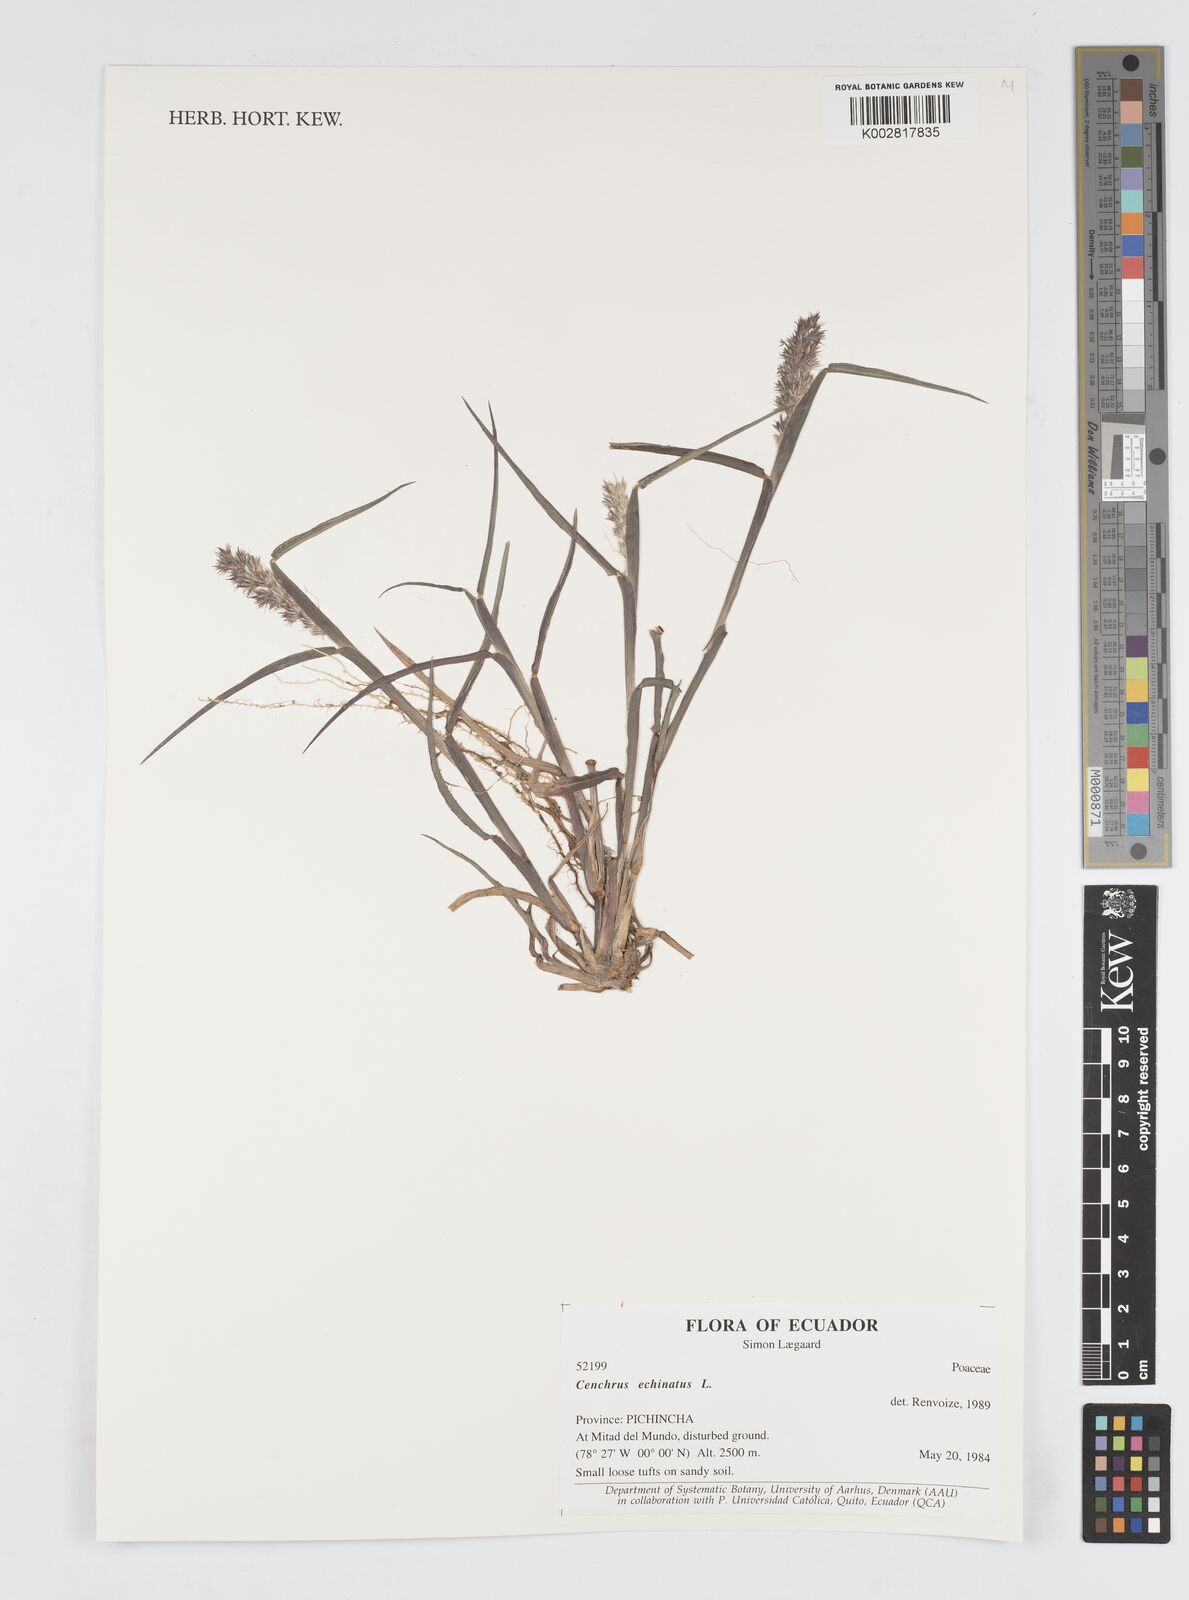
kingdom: Plantae
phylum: Tracheophyta
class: Liliopsida
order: Poales
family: Poaceae
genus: Cenchrus
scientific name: Cenchrus
